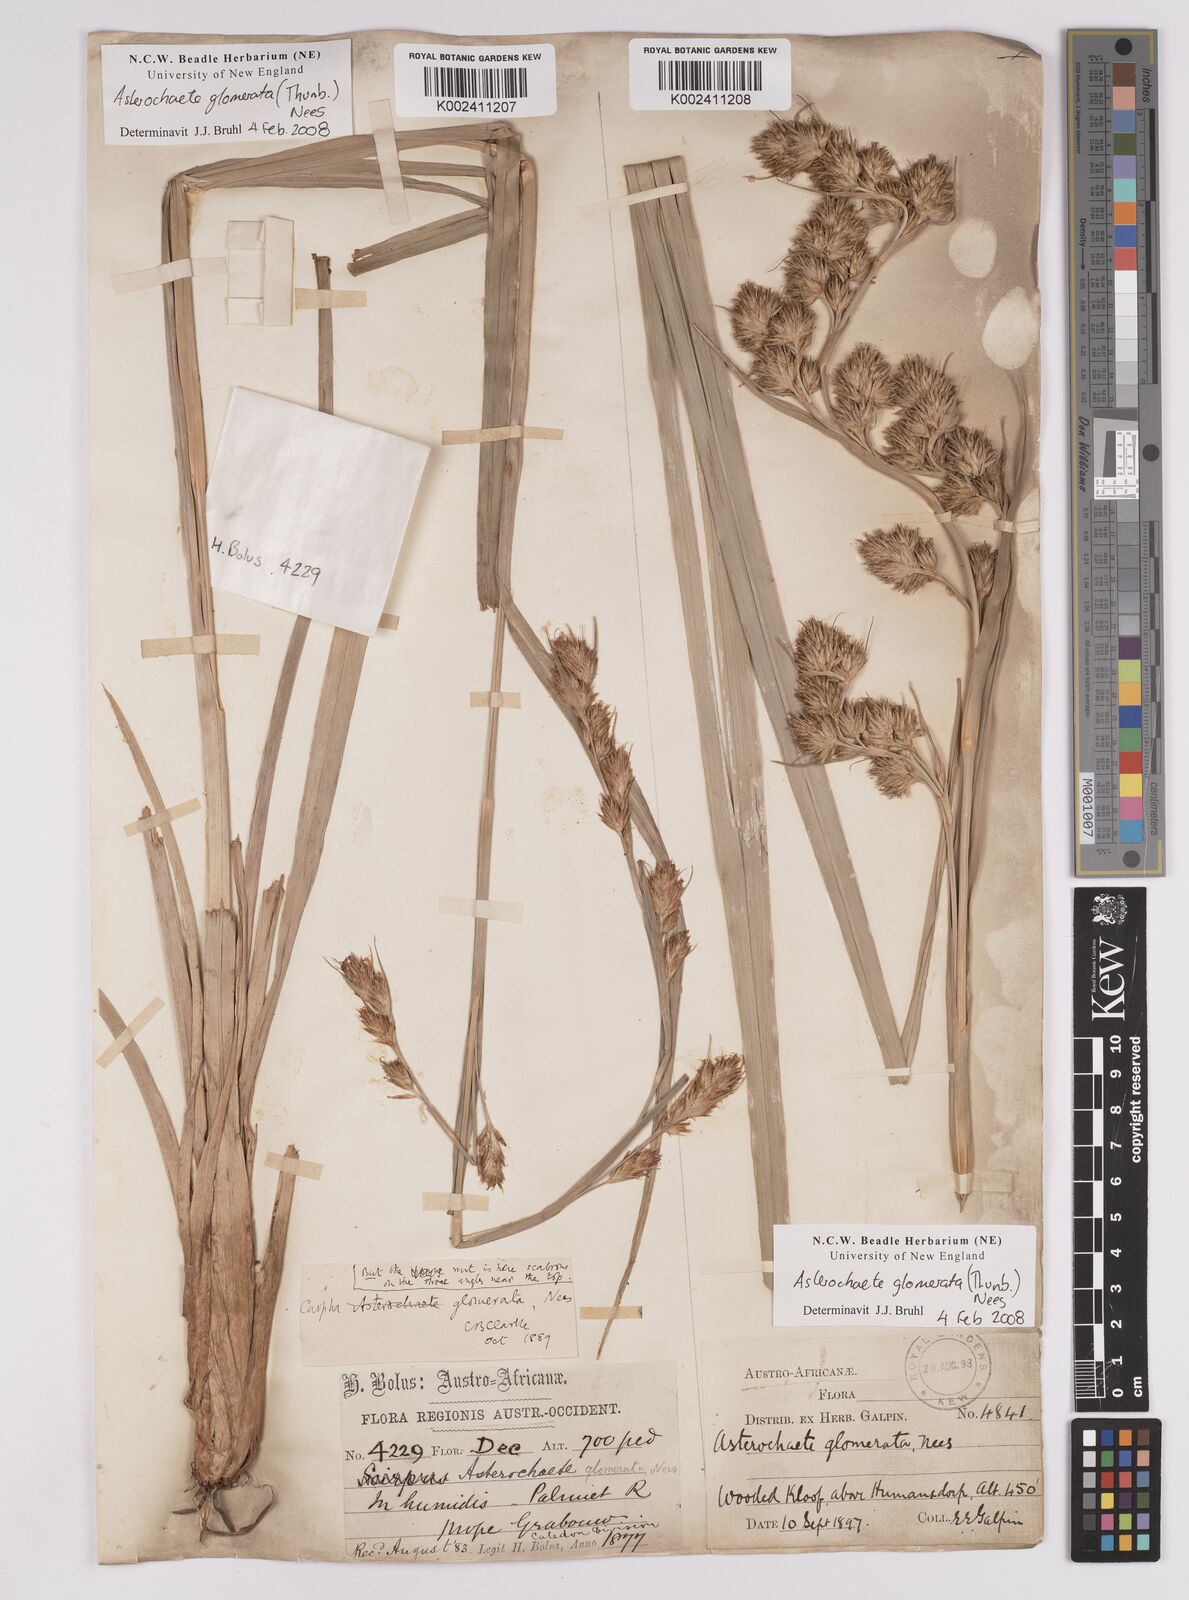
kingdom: Plantae
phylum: Tracheophyta
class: Liliopsida
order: Poales
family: Cyperaceae
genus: Carpha
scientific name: Carpha
